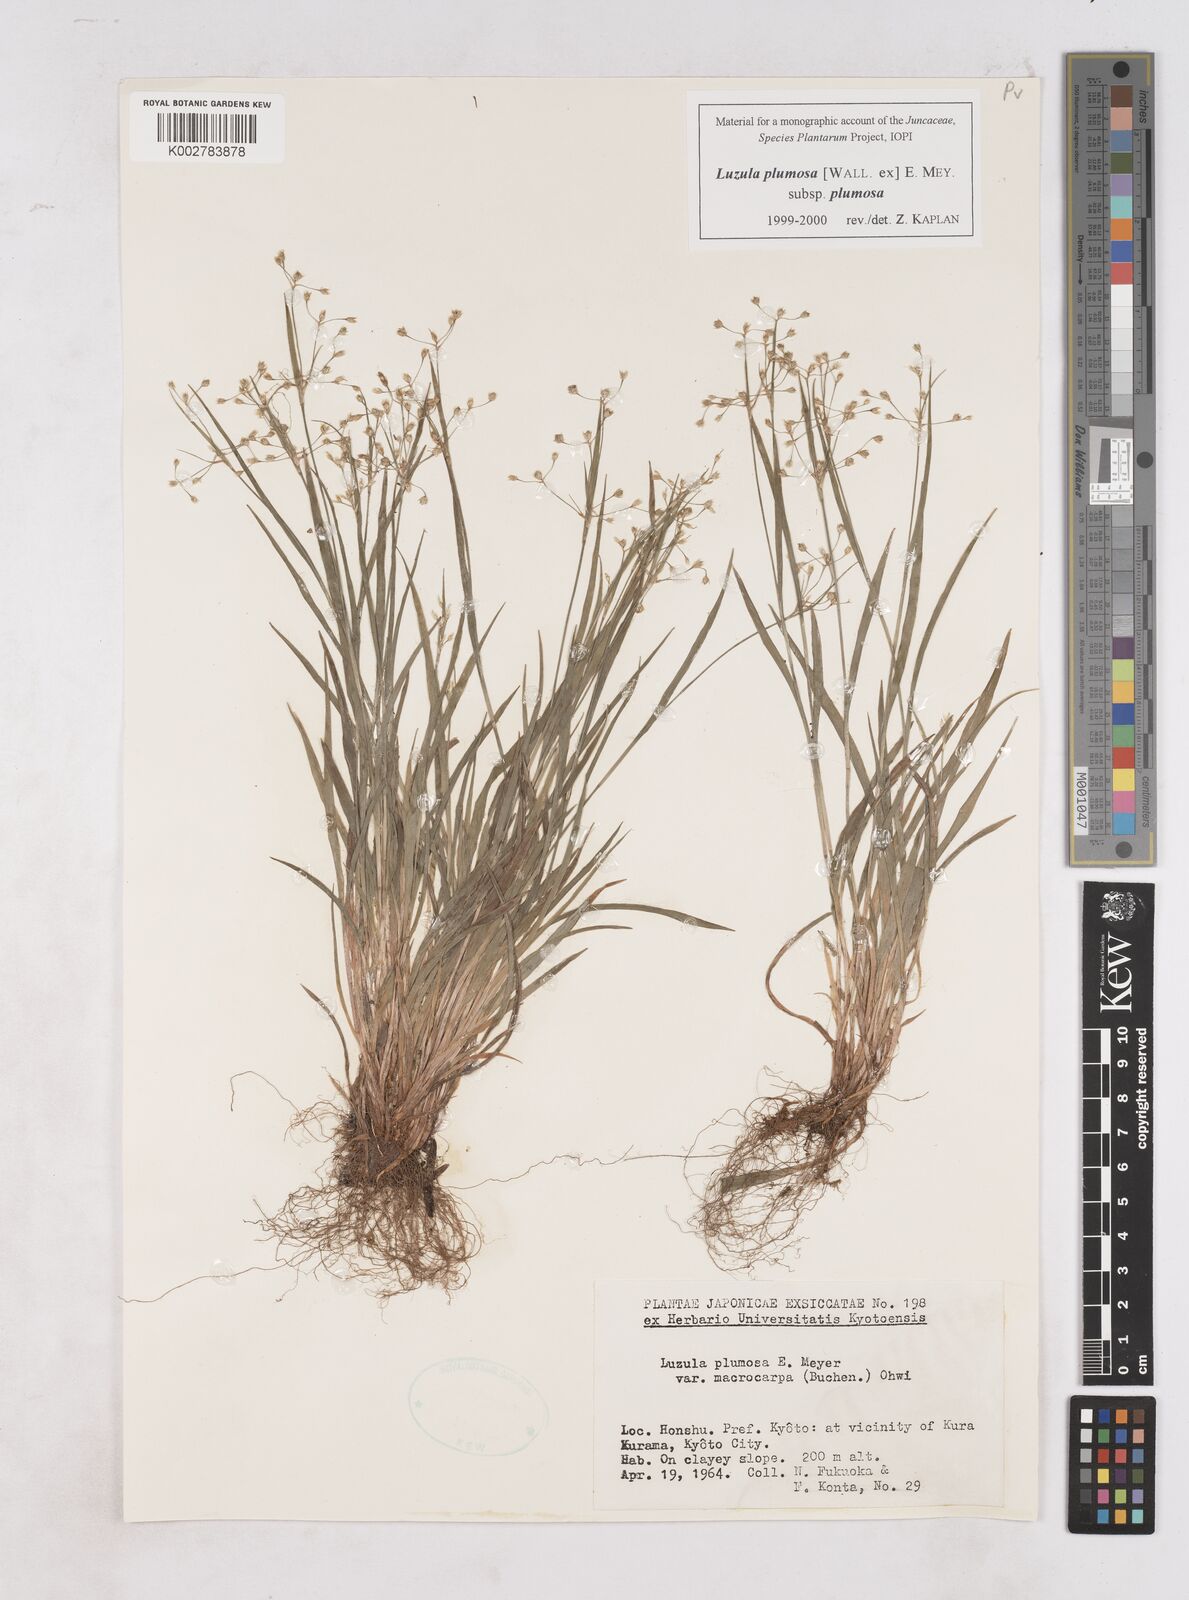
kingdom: Plantae
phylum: Tracheophyta
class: Liliopsida
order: Poales
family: Juncaceae
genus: Luzula
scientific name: Luzula plumosa
